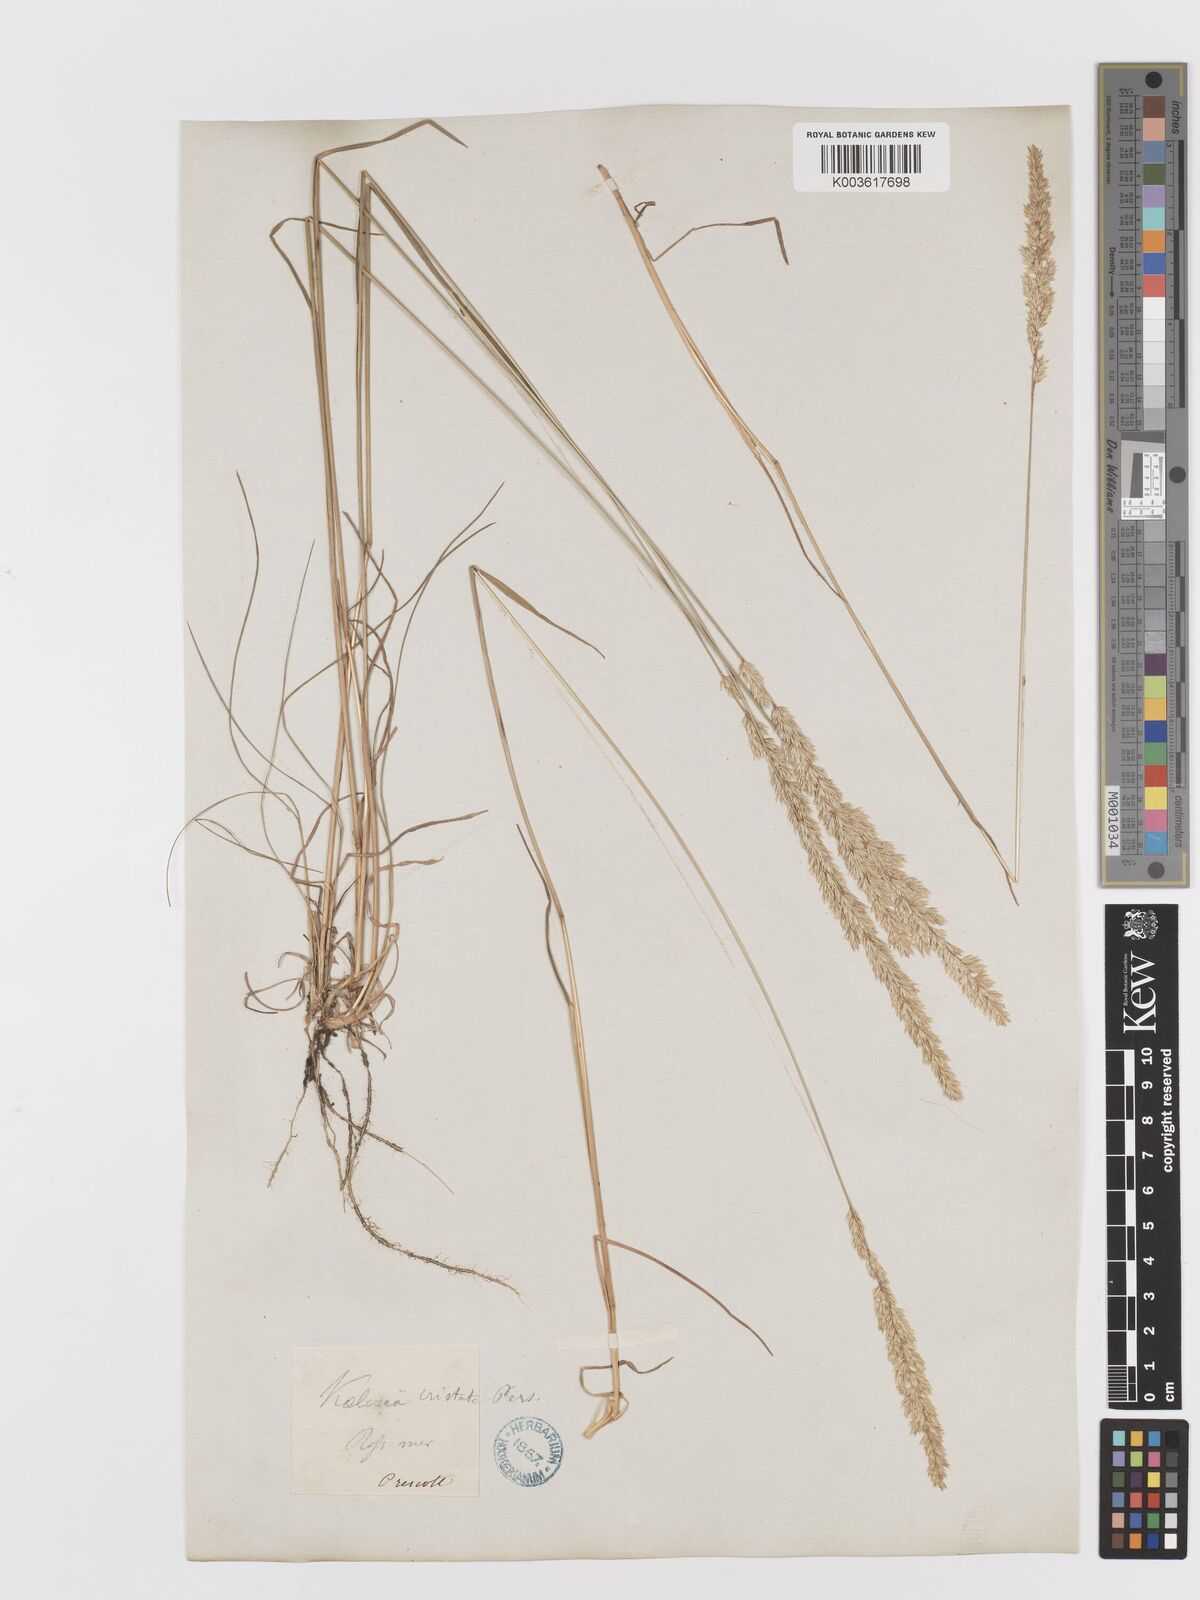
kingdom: Plantae
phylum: Tracheophyta
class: Liliopsida
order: Poales
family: Poaceae
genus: Koeleria
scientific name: Koeleria pyramidata
